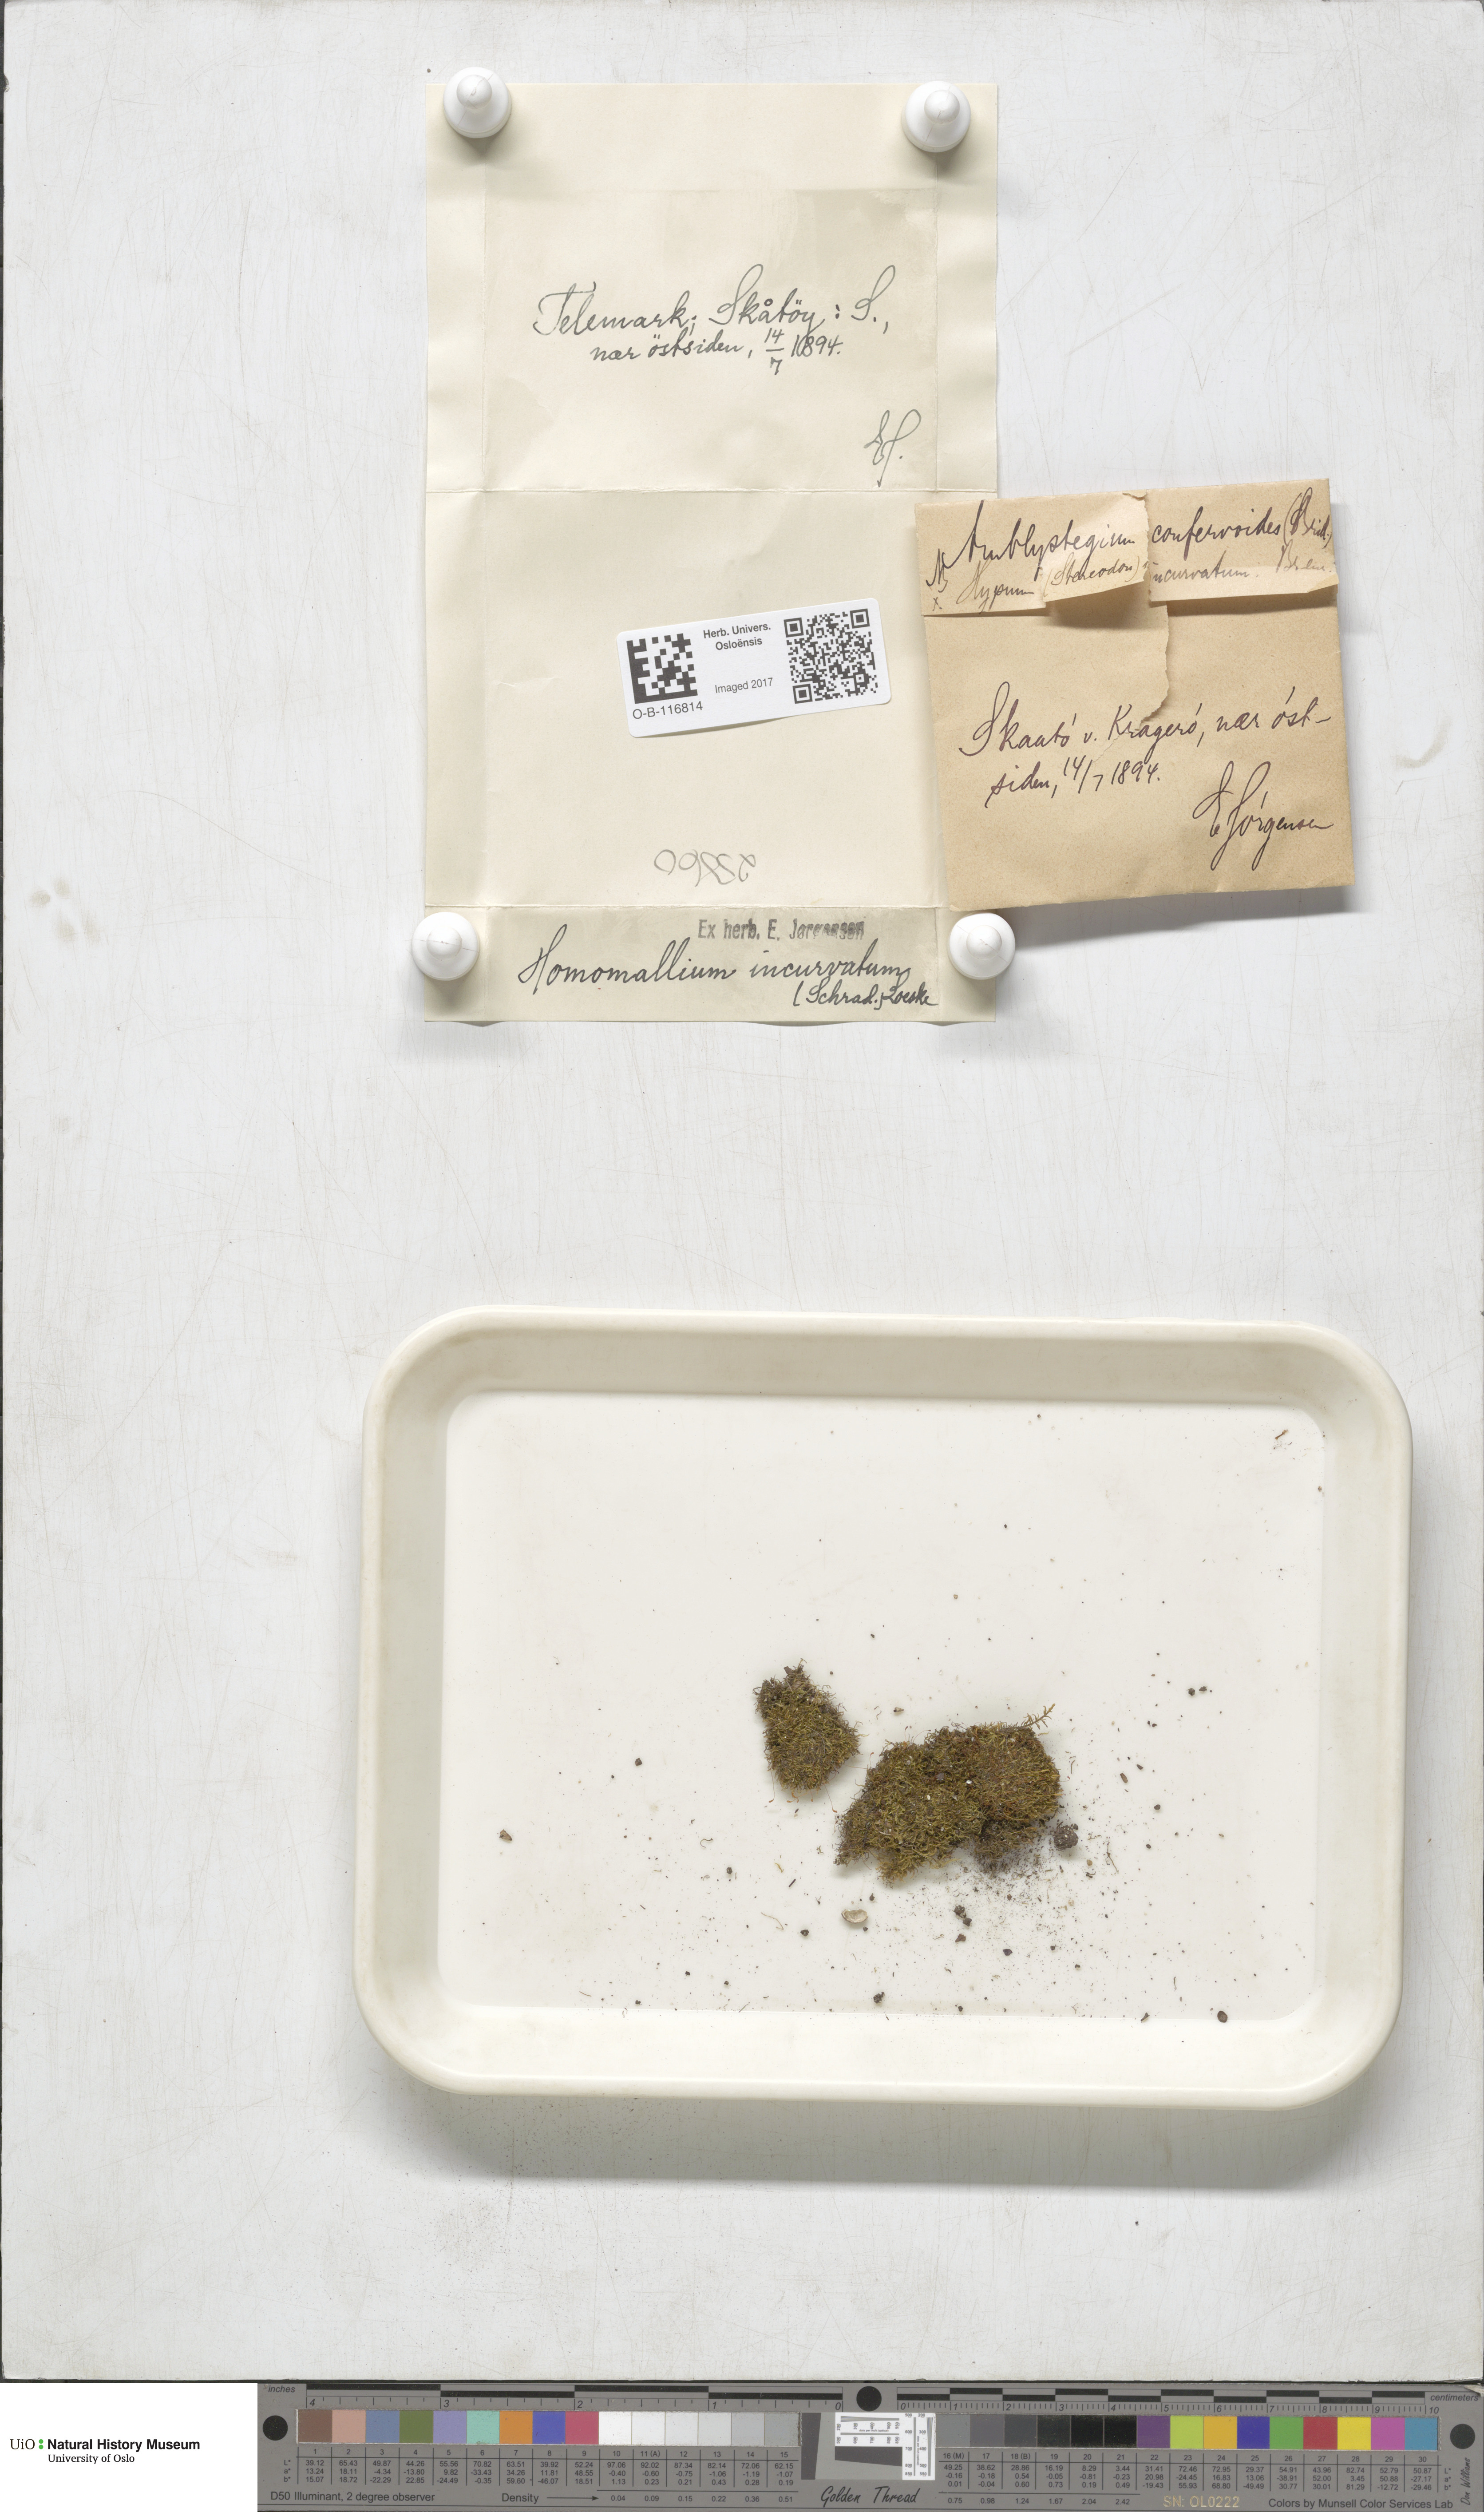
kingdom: Plantae
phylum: Bryophyta
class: Bryopsida
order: Hypnales
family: Pylaisiaceae
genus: Homomallium
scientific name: Homomallium incurvatum
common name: Incurved feather-moss
